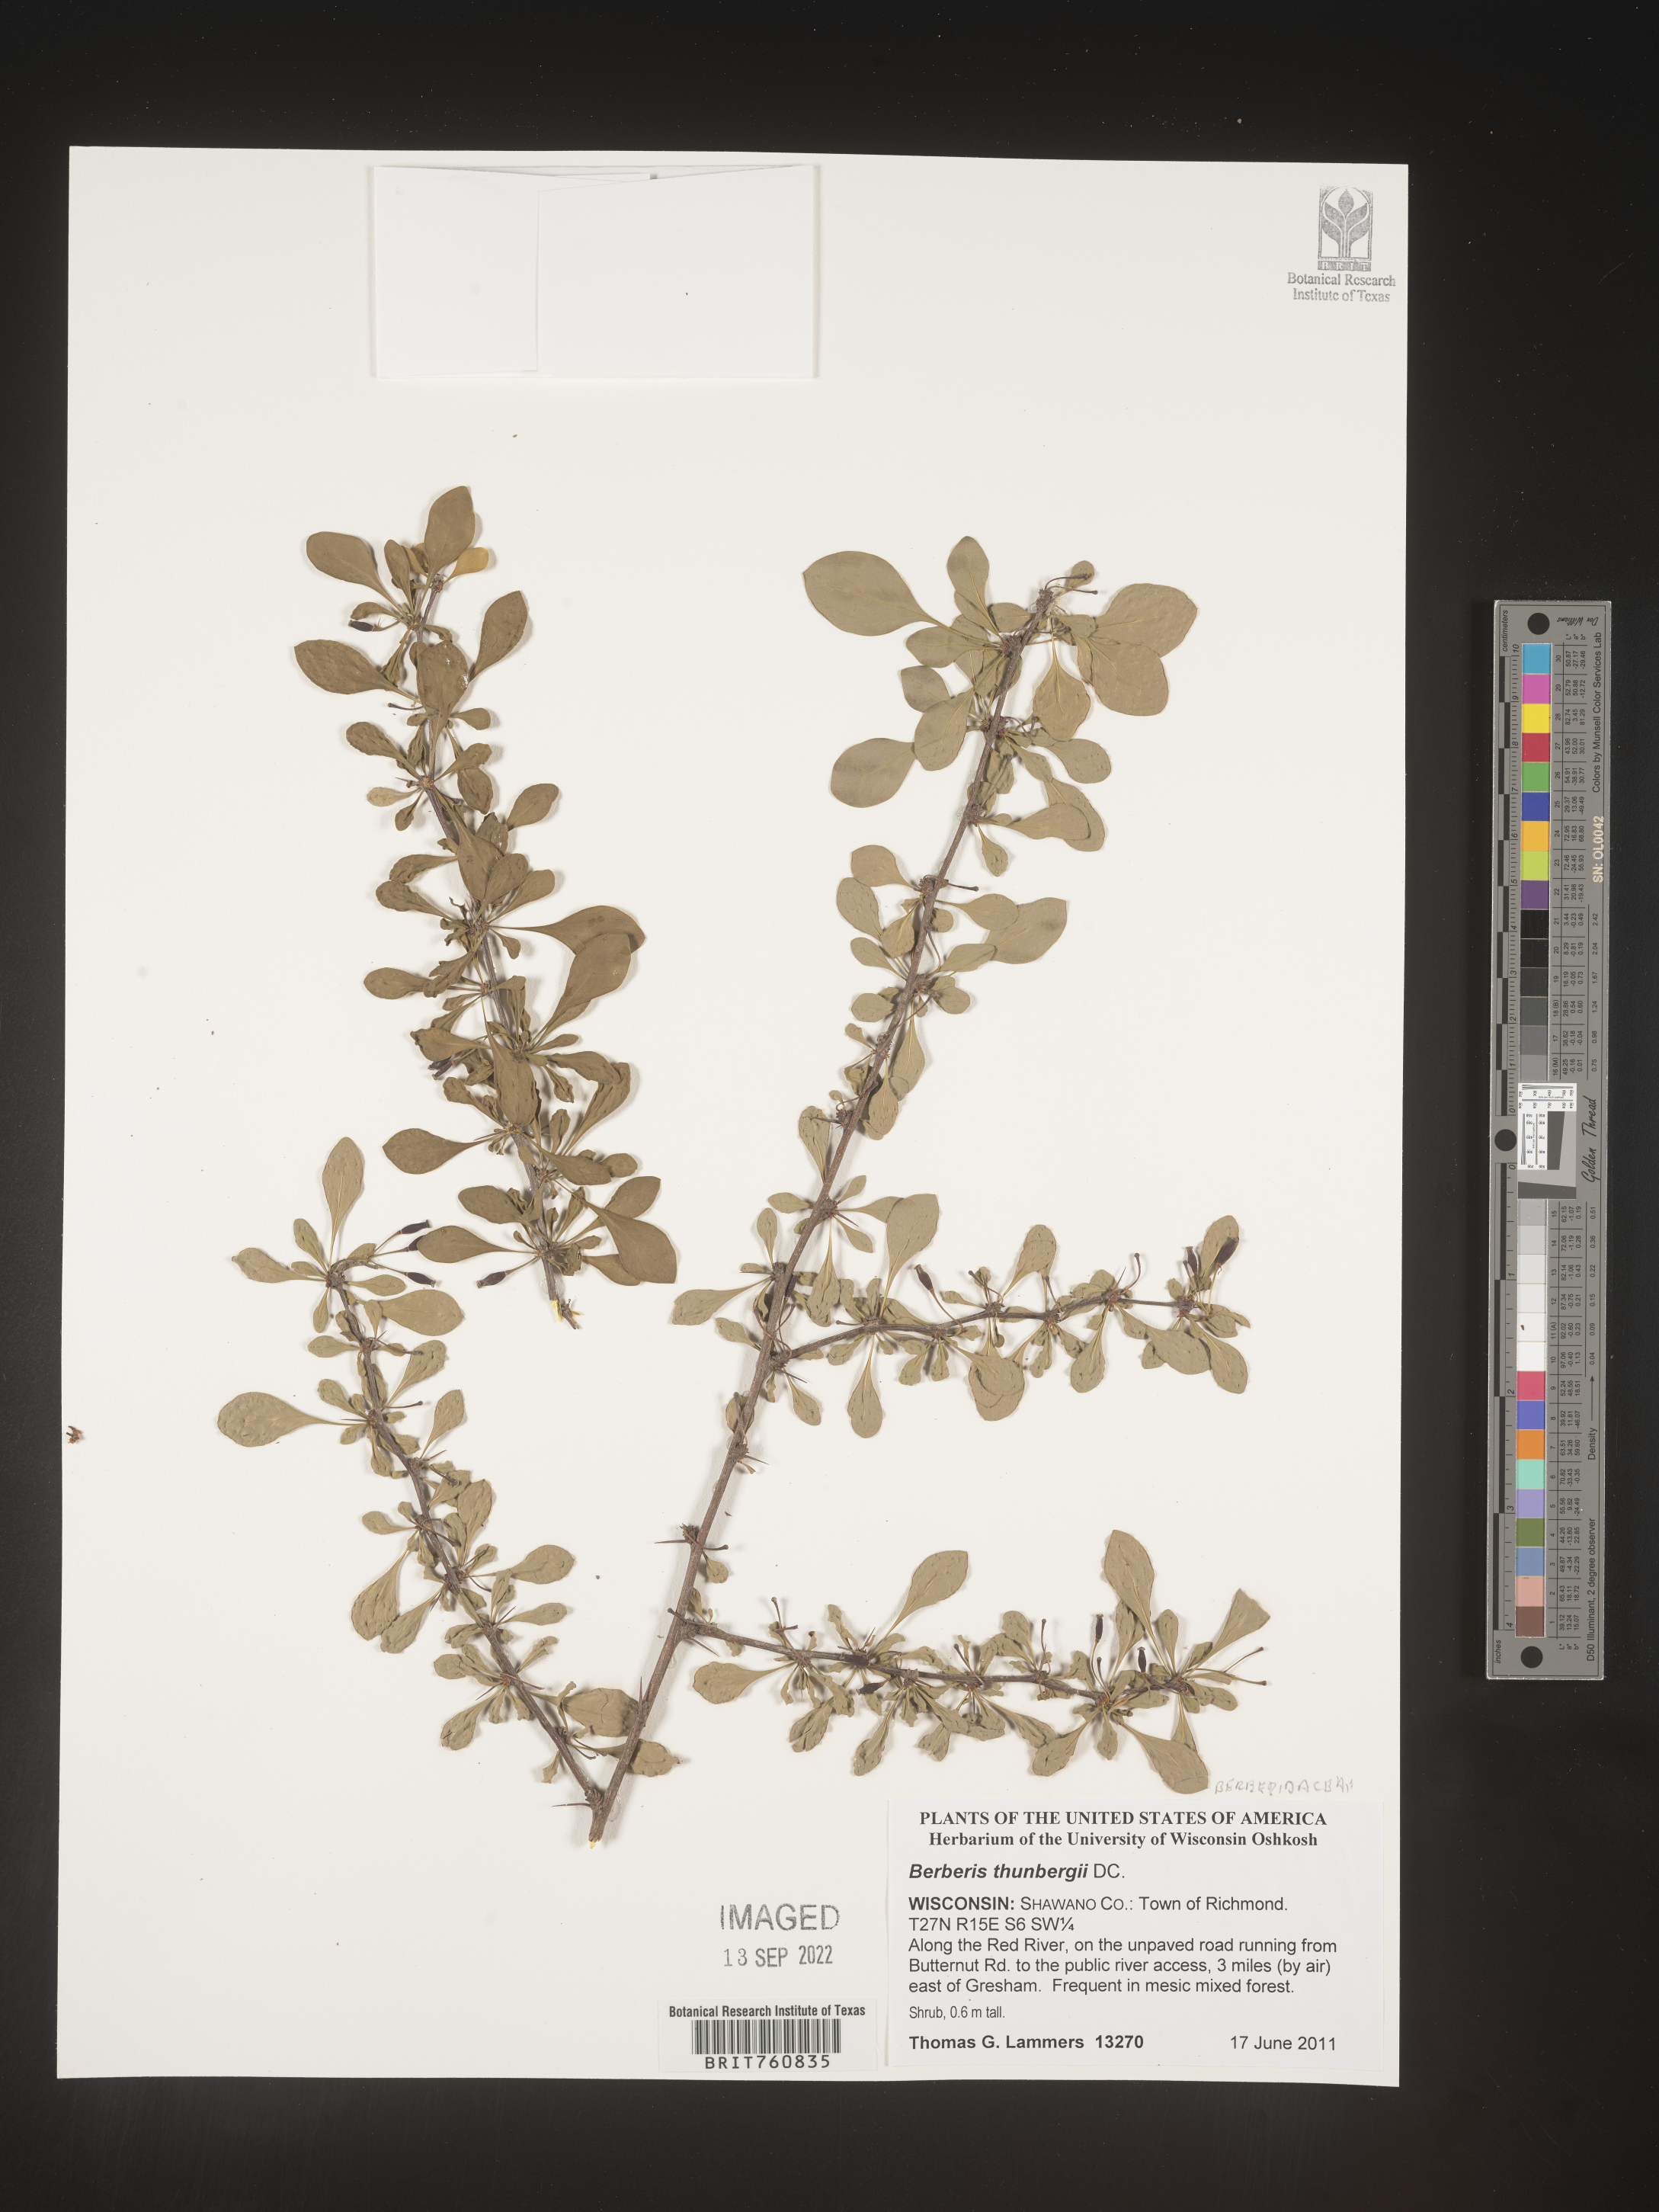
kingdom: Plantae
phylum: Tracheophyta
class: Magnoliopsida
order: Ranunculales
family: Berberidaceae
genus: Berberis
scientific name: Berberis
